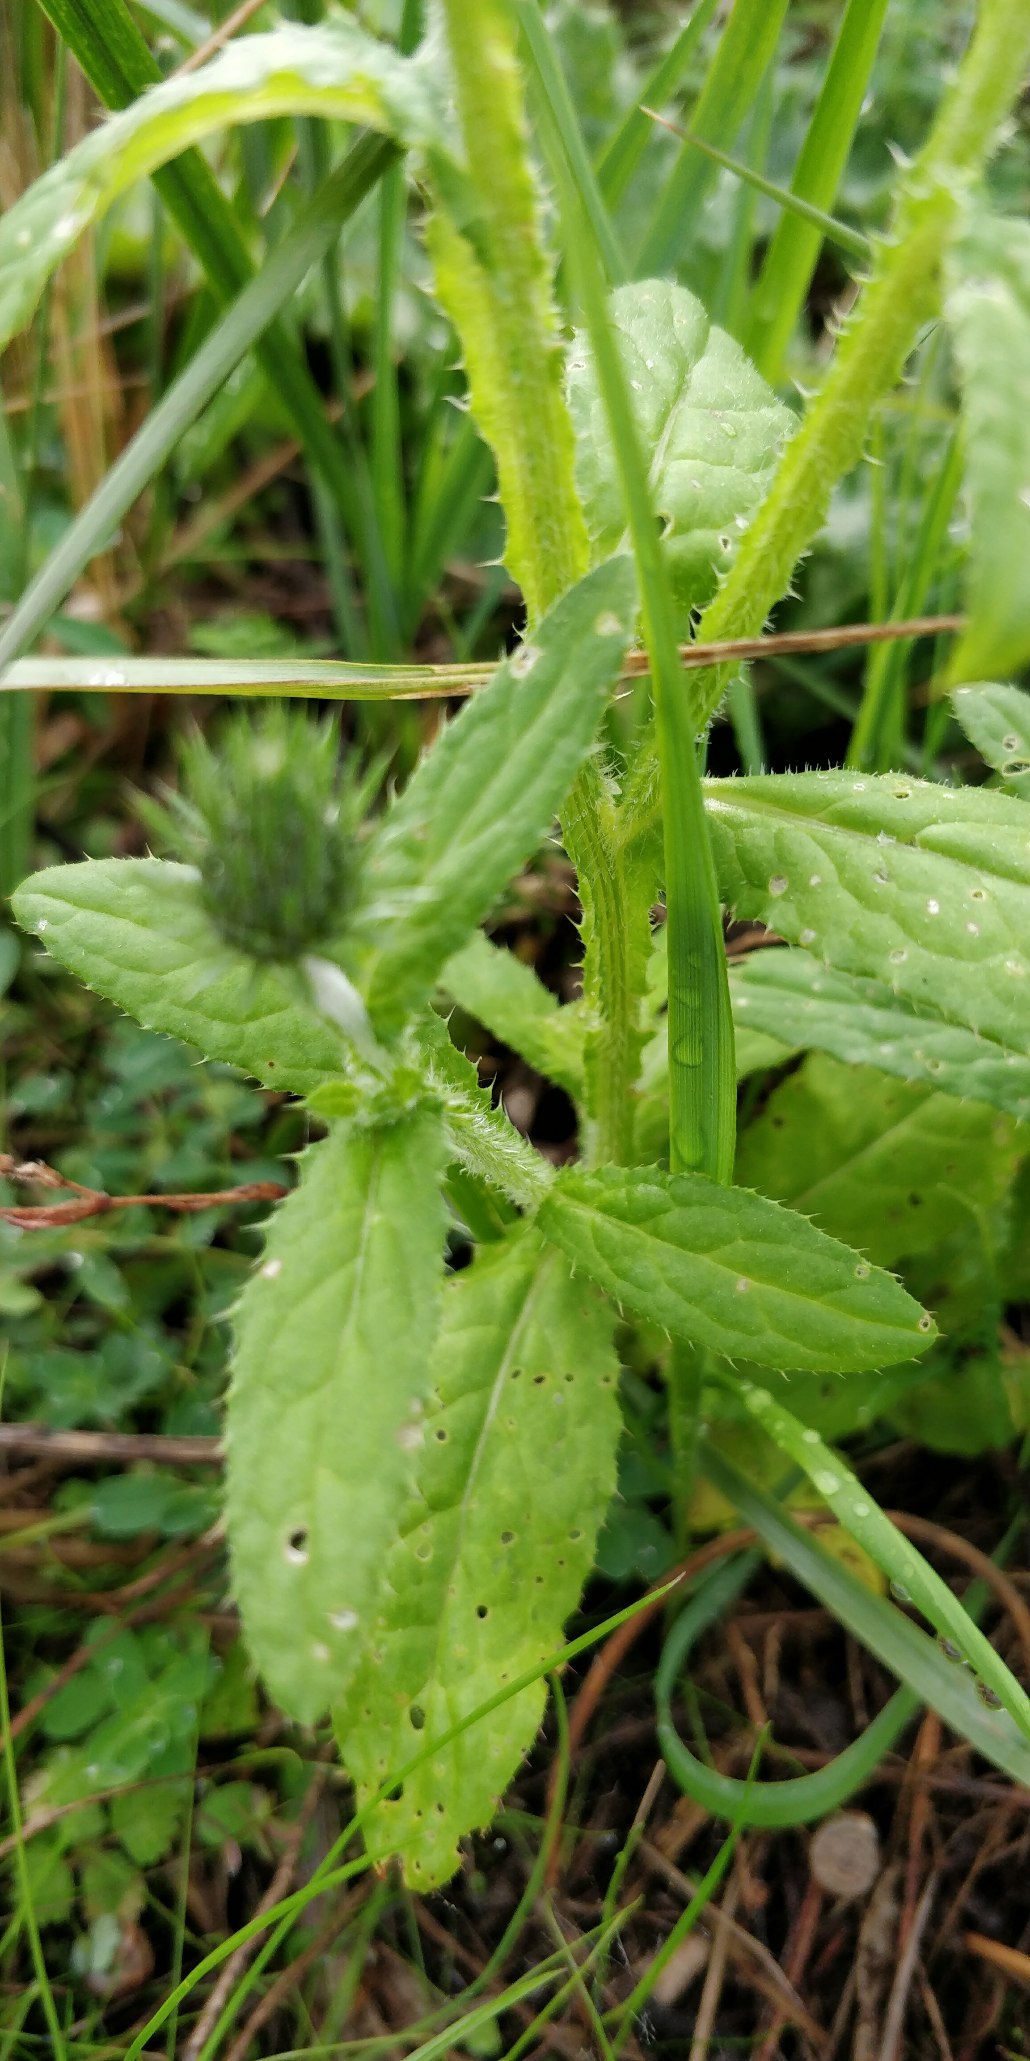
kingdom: Plantae
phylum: Tracheophyta
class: Magnoliopsida
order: Asterales
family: Asteraceae
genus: Carduus
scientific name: Carduus crispus
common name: Kruset tidsel
